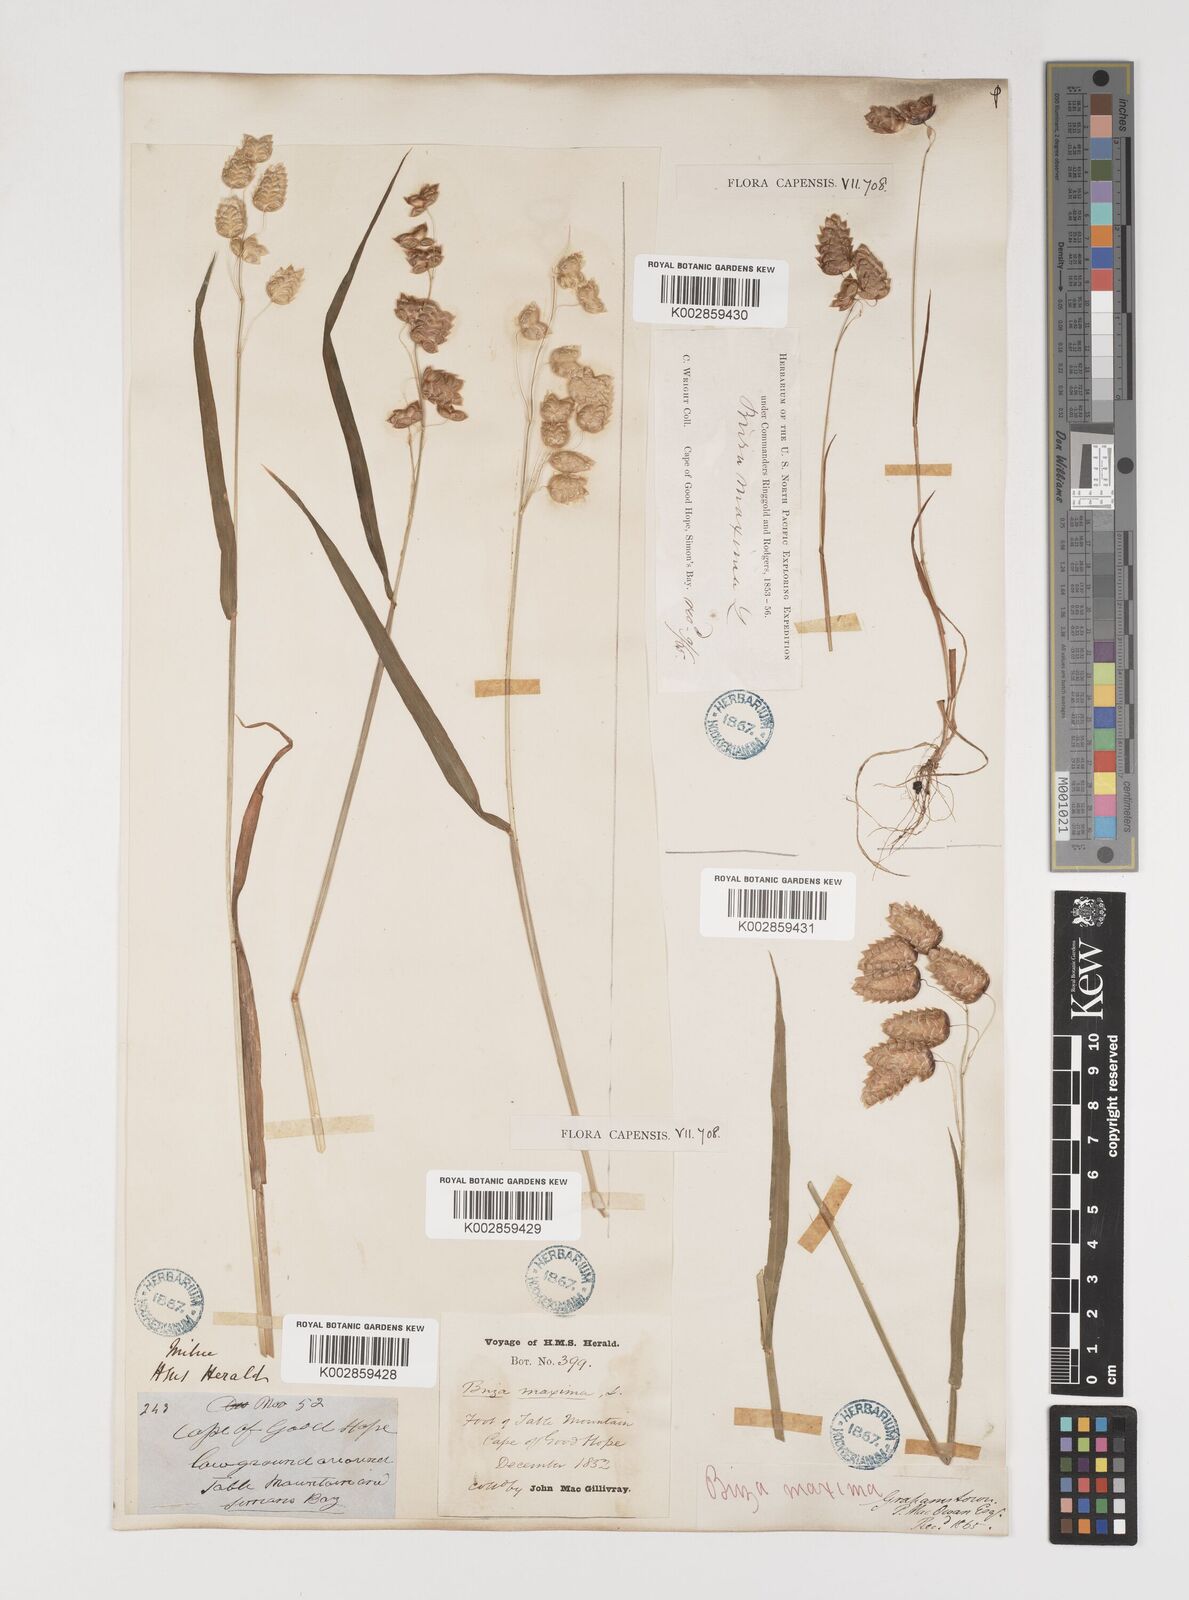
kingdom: Plantae
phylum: Tracheophyta
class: Liliopsida
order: Poales
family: Poaceae
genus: Briza
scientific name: Briza maxima
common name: Big quakinggrass
